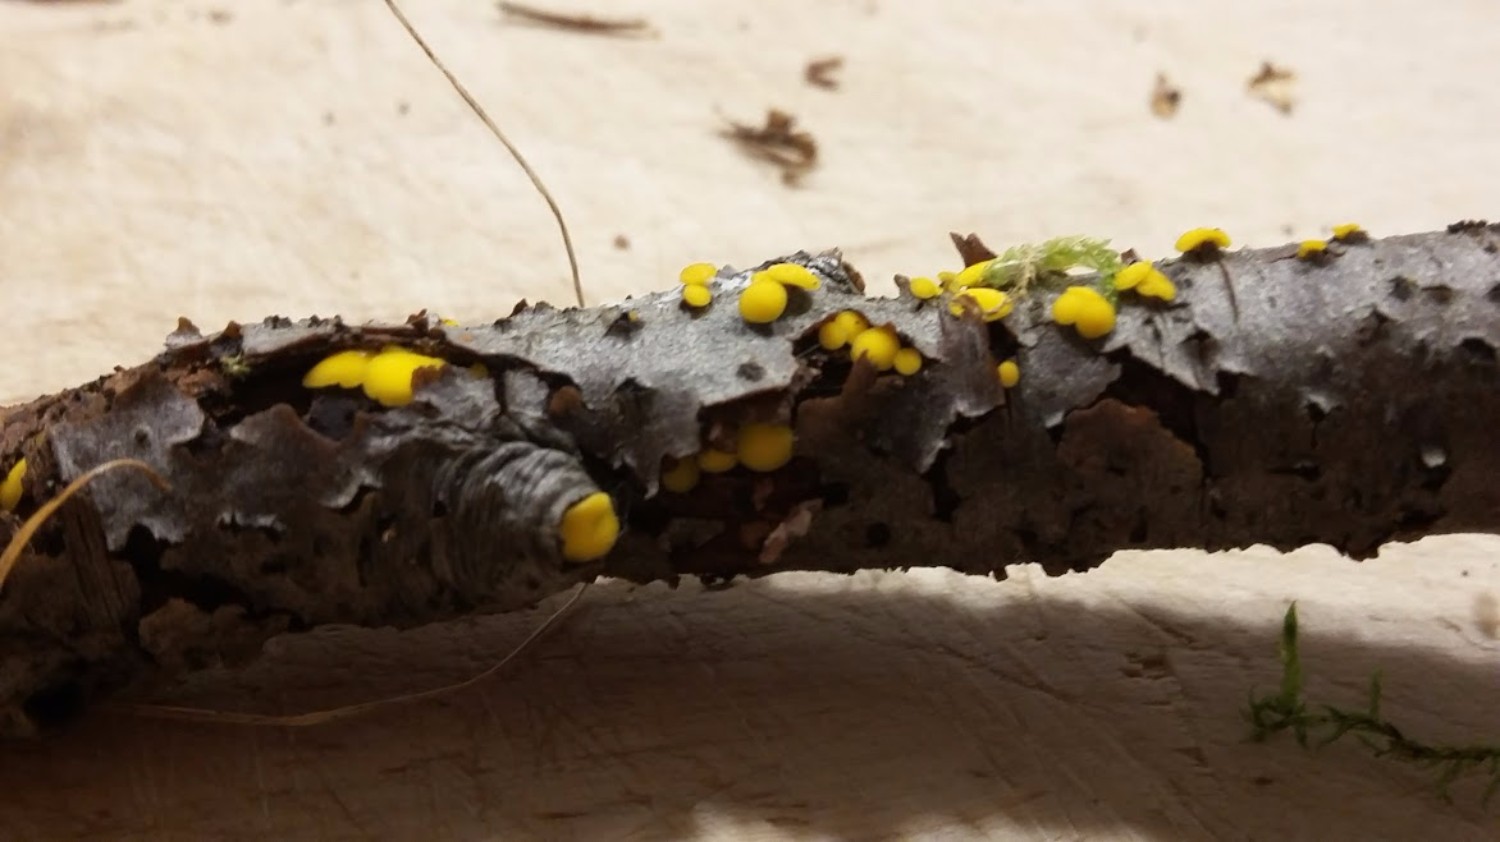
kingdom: Fungi
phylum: Ascomycota
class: Leotiomycetes
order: Helotiales
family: Helotiaceae
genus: Hymenoscyphus
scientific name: Hymenoscyphus
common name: stilkskive
